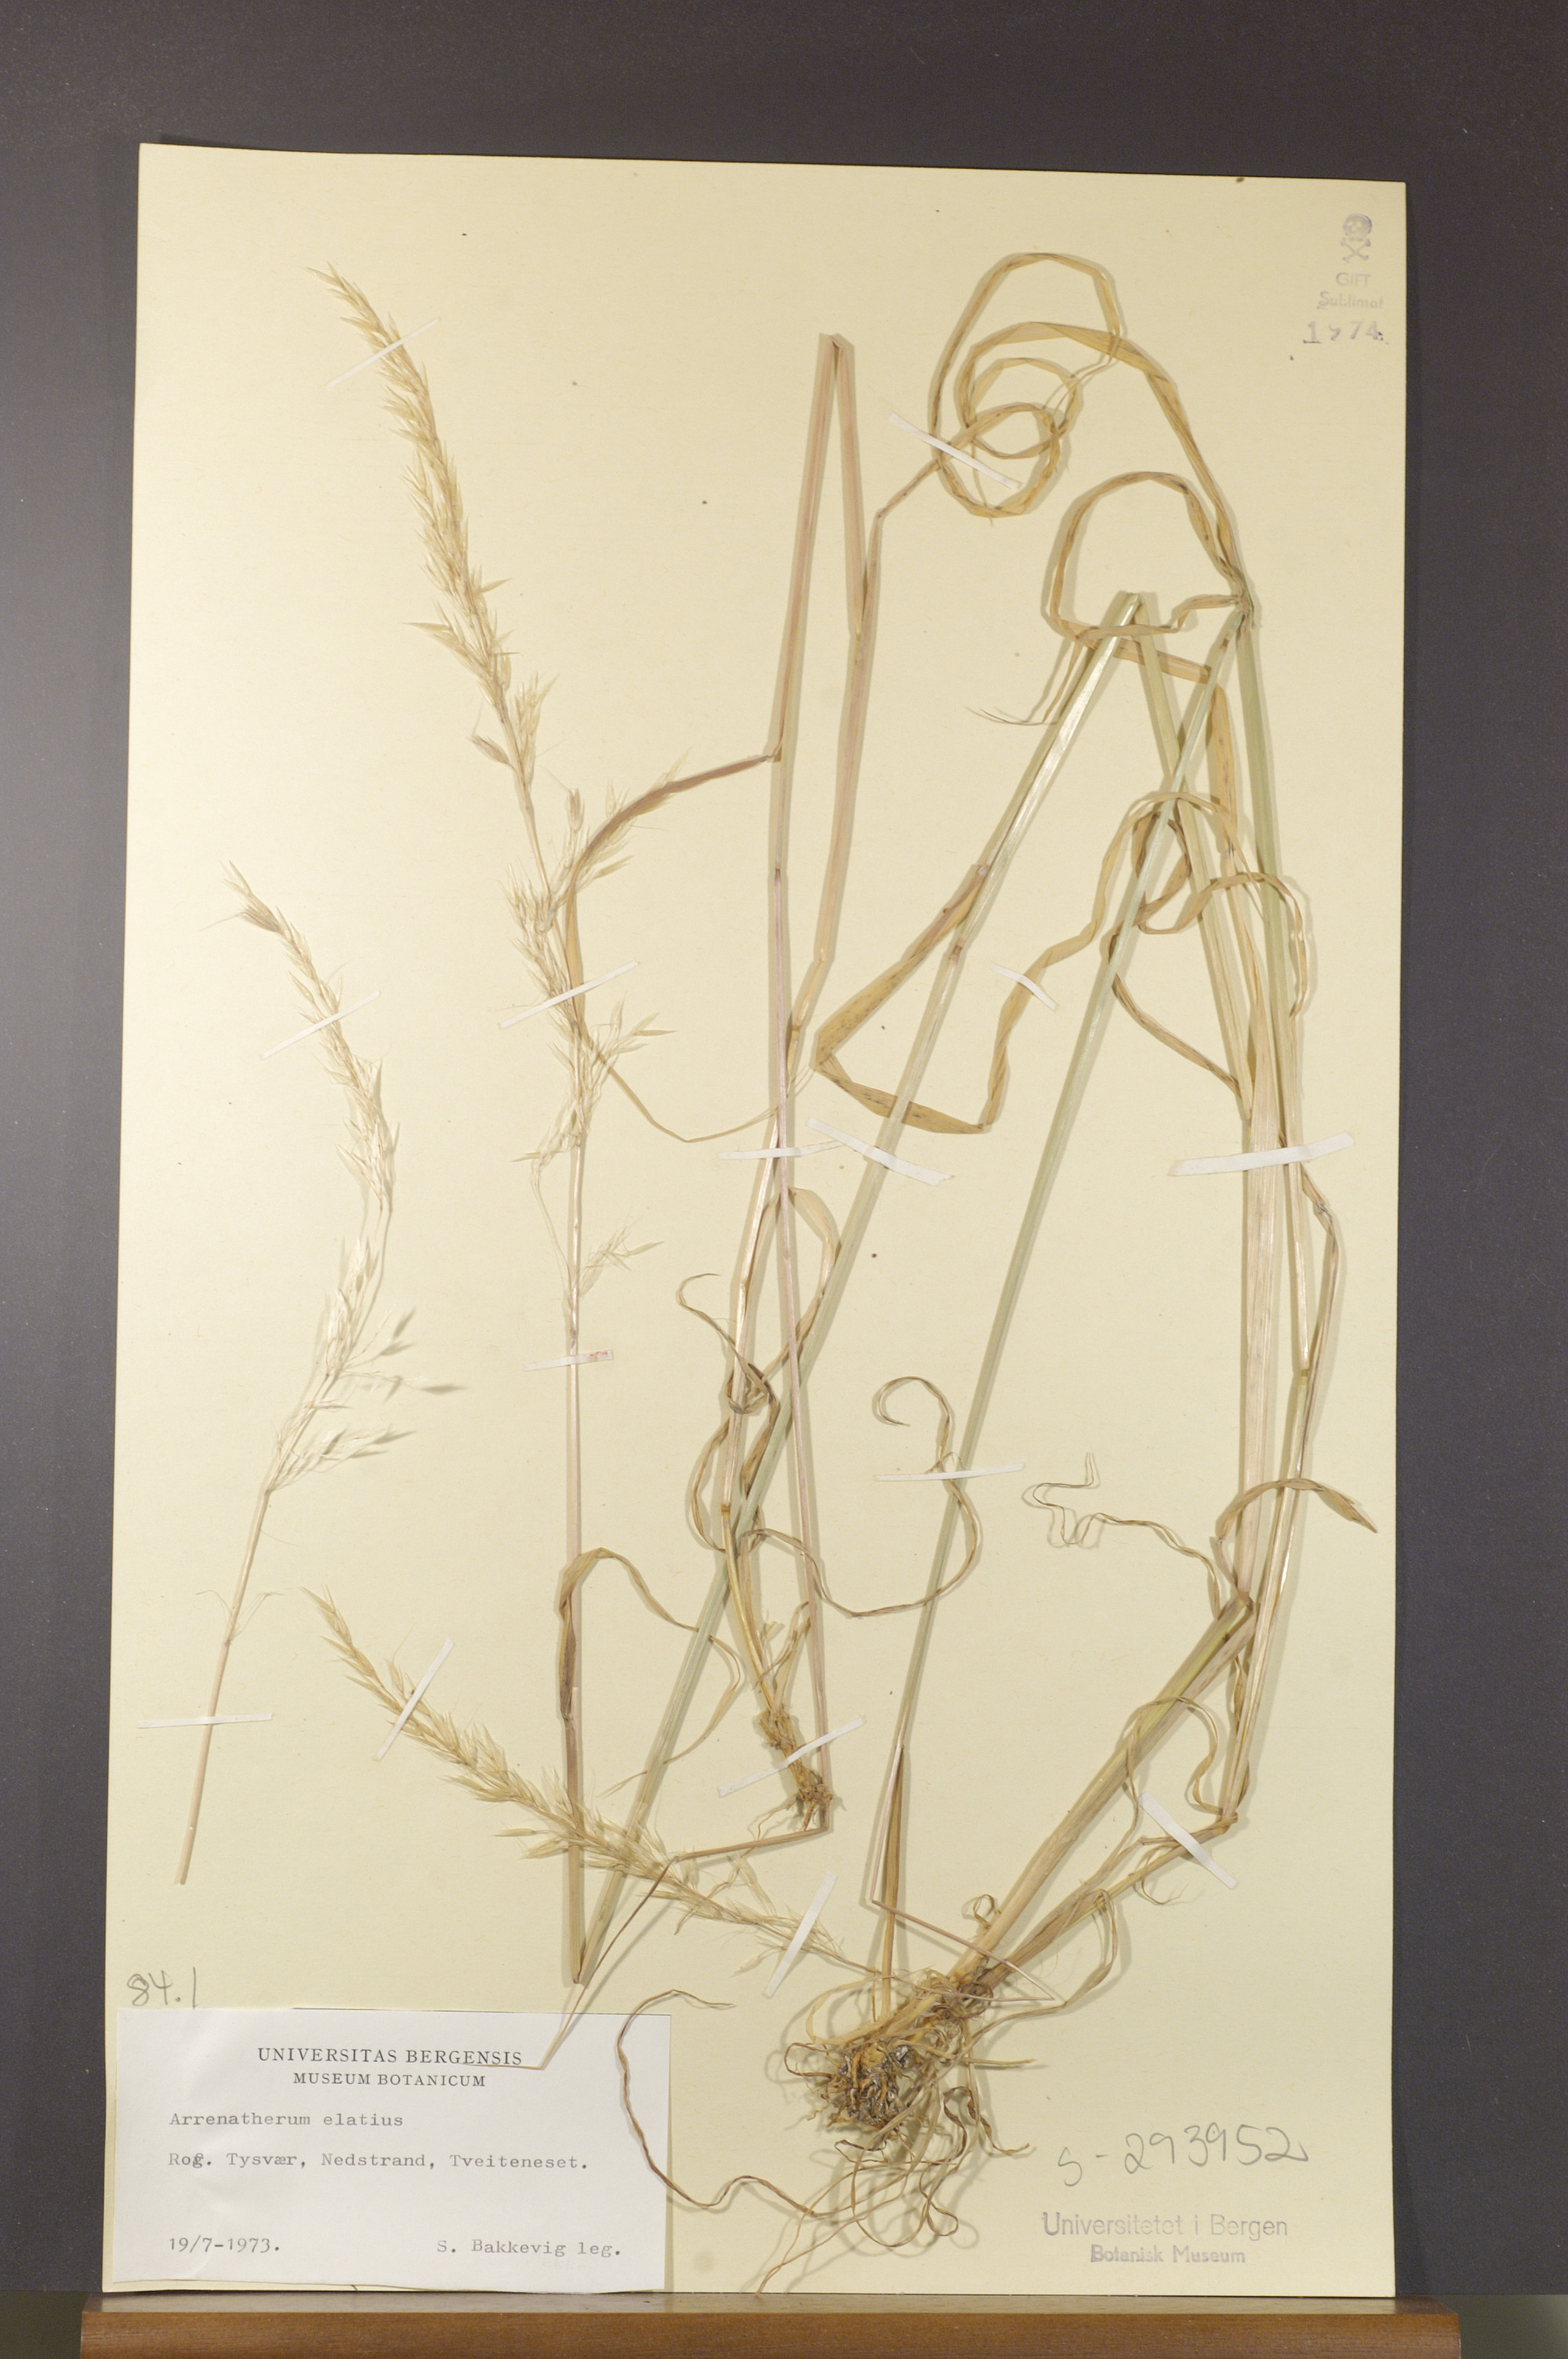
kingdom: Plantae
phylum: Tracheophyta
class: Liliopsida
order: Poales
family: Poaceae
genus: Arrhenatherum
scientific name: Arrhenatherum elatius
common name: Tall oatgrass
